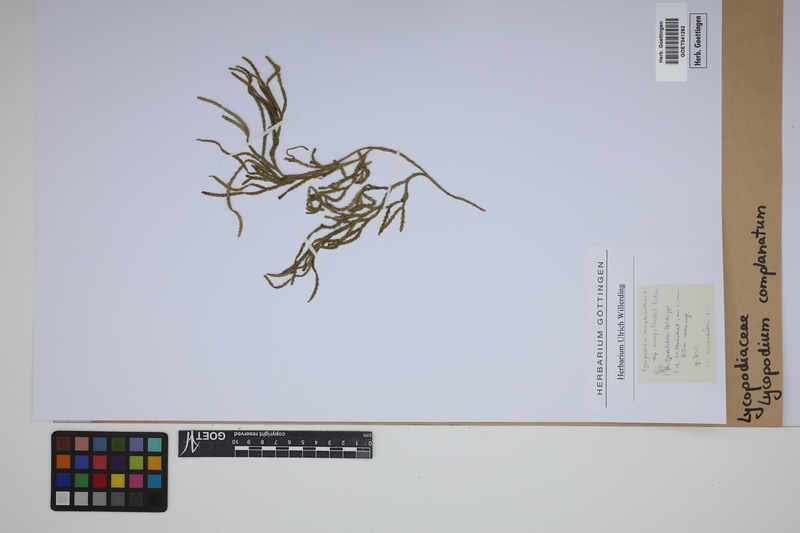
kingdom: Plantae
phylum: Tracheophyta
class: Lycopodiopsida
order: Lycopodiales
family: Lycopodiaceae
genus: Diphasiastrum
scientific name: Diphasiastrum complanatum
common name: Northern running-pine
